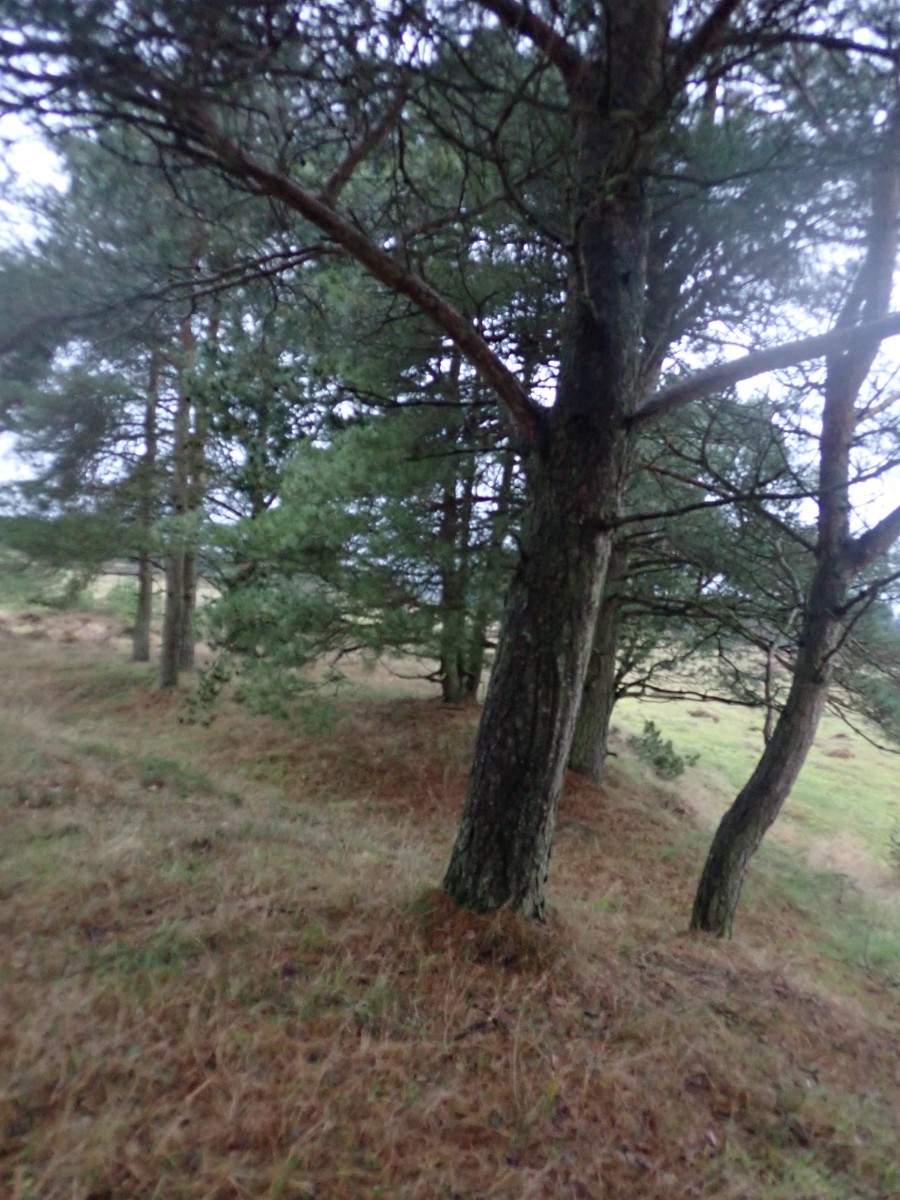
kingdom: Fungi
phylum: Basidiomycota
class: Agaricomycetes
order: Agaricales
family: Hygrophoraceae
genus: Hygrophorus
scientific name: Hygrophorus hypothejus
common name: frost-sneglehat
